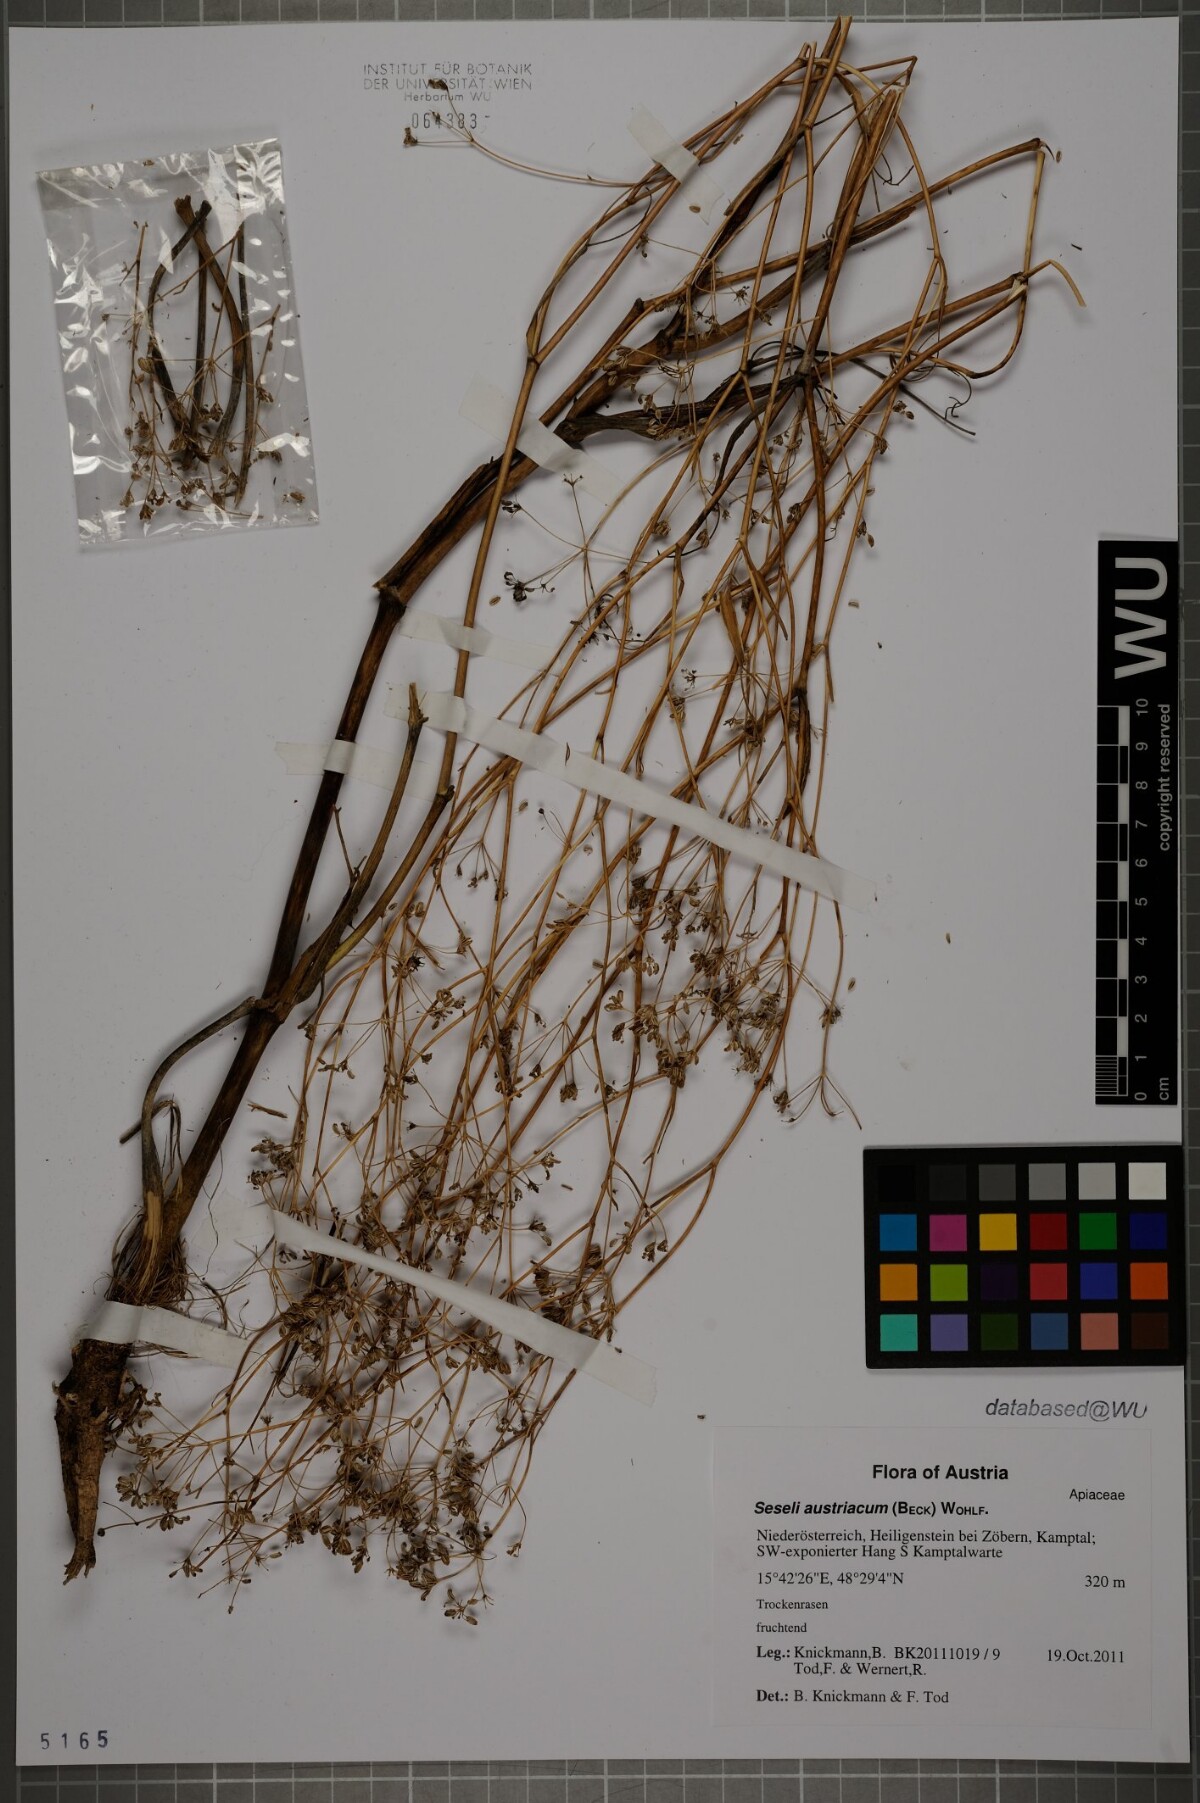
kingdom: Plantae
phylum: Tracheophyta
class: Magnoliopsida
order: Apiales
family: Apiaceae
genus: Seseli
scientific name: Seseli austriacum
